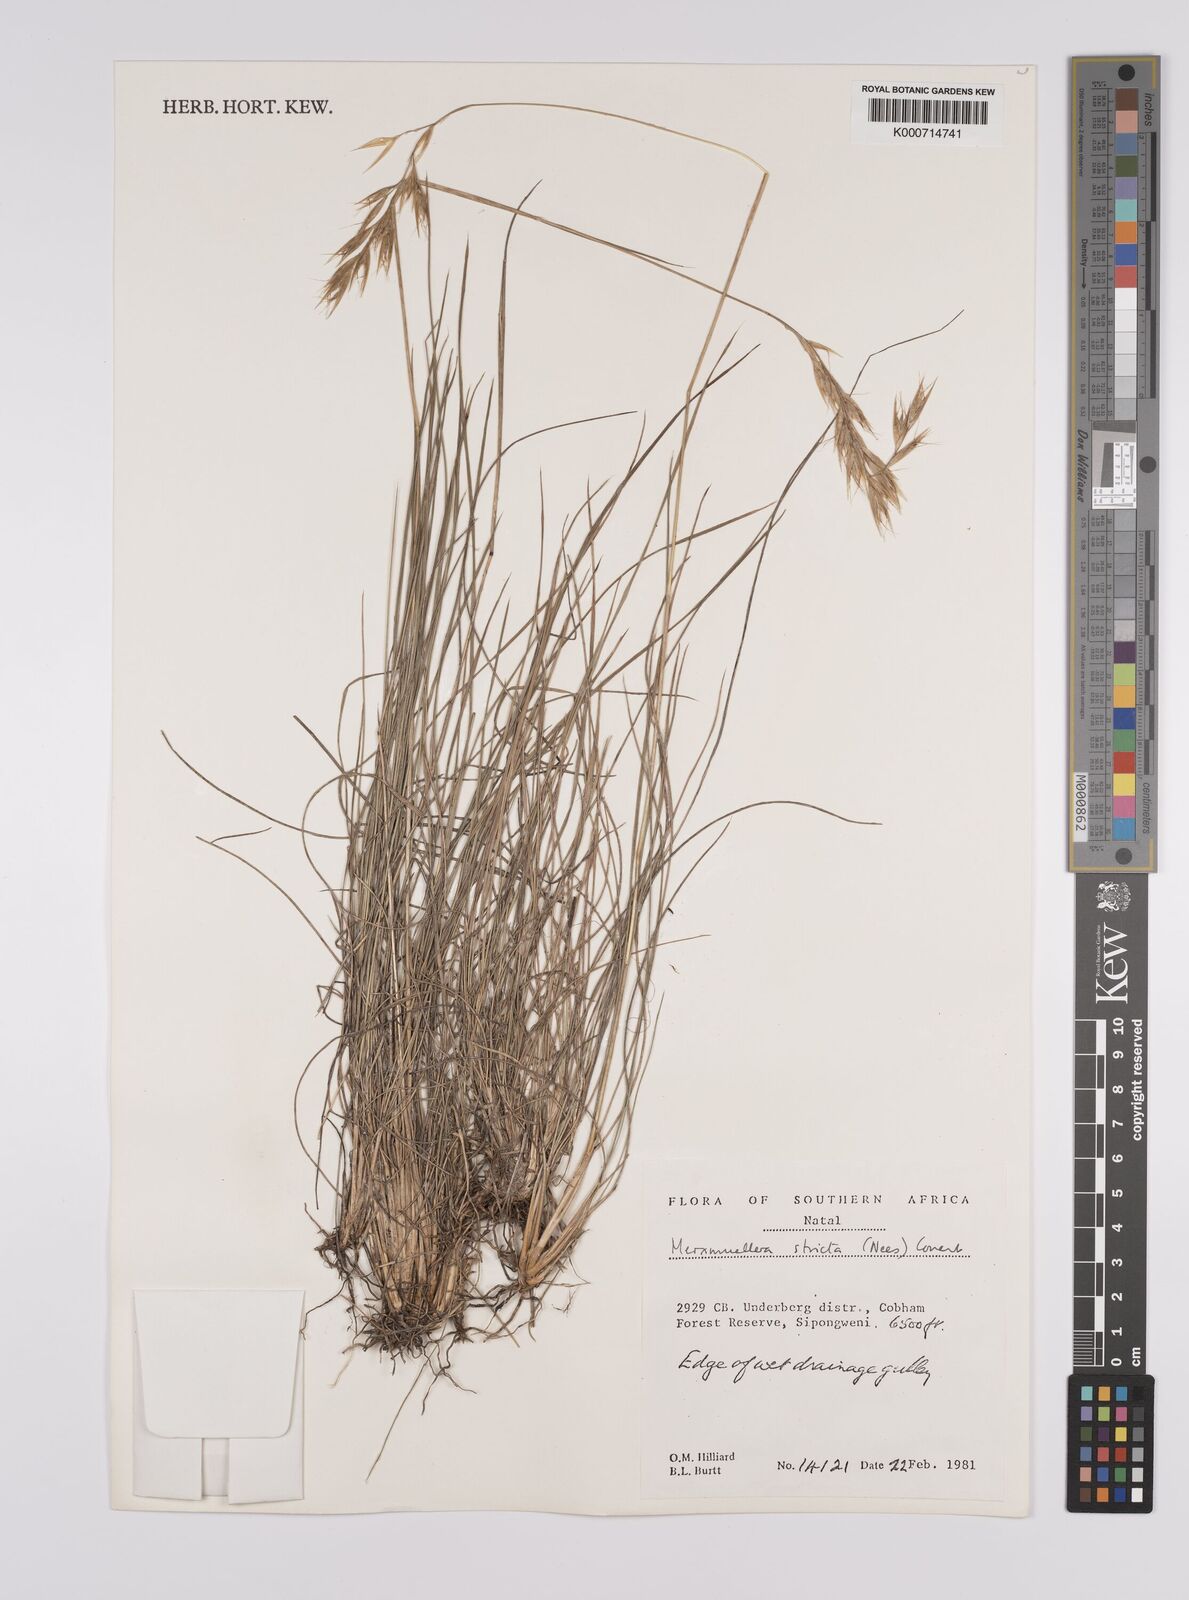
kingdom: Plantae
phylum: Tracheophyta
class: Liliopsida
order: Poales
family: Poaceae
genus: Rytidosperma
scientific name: Rytidosperma
